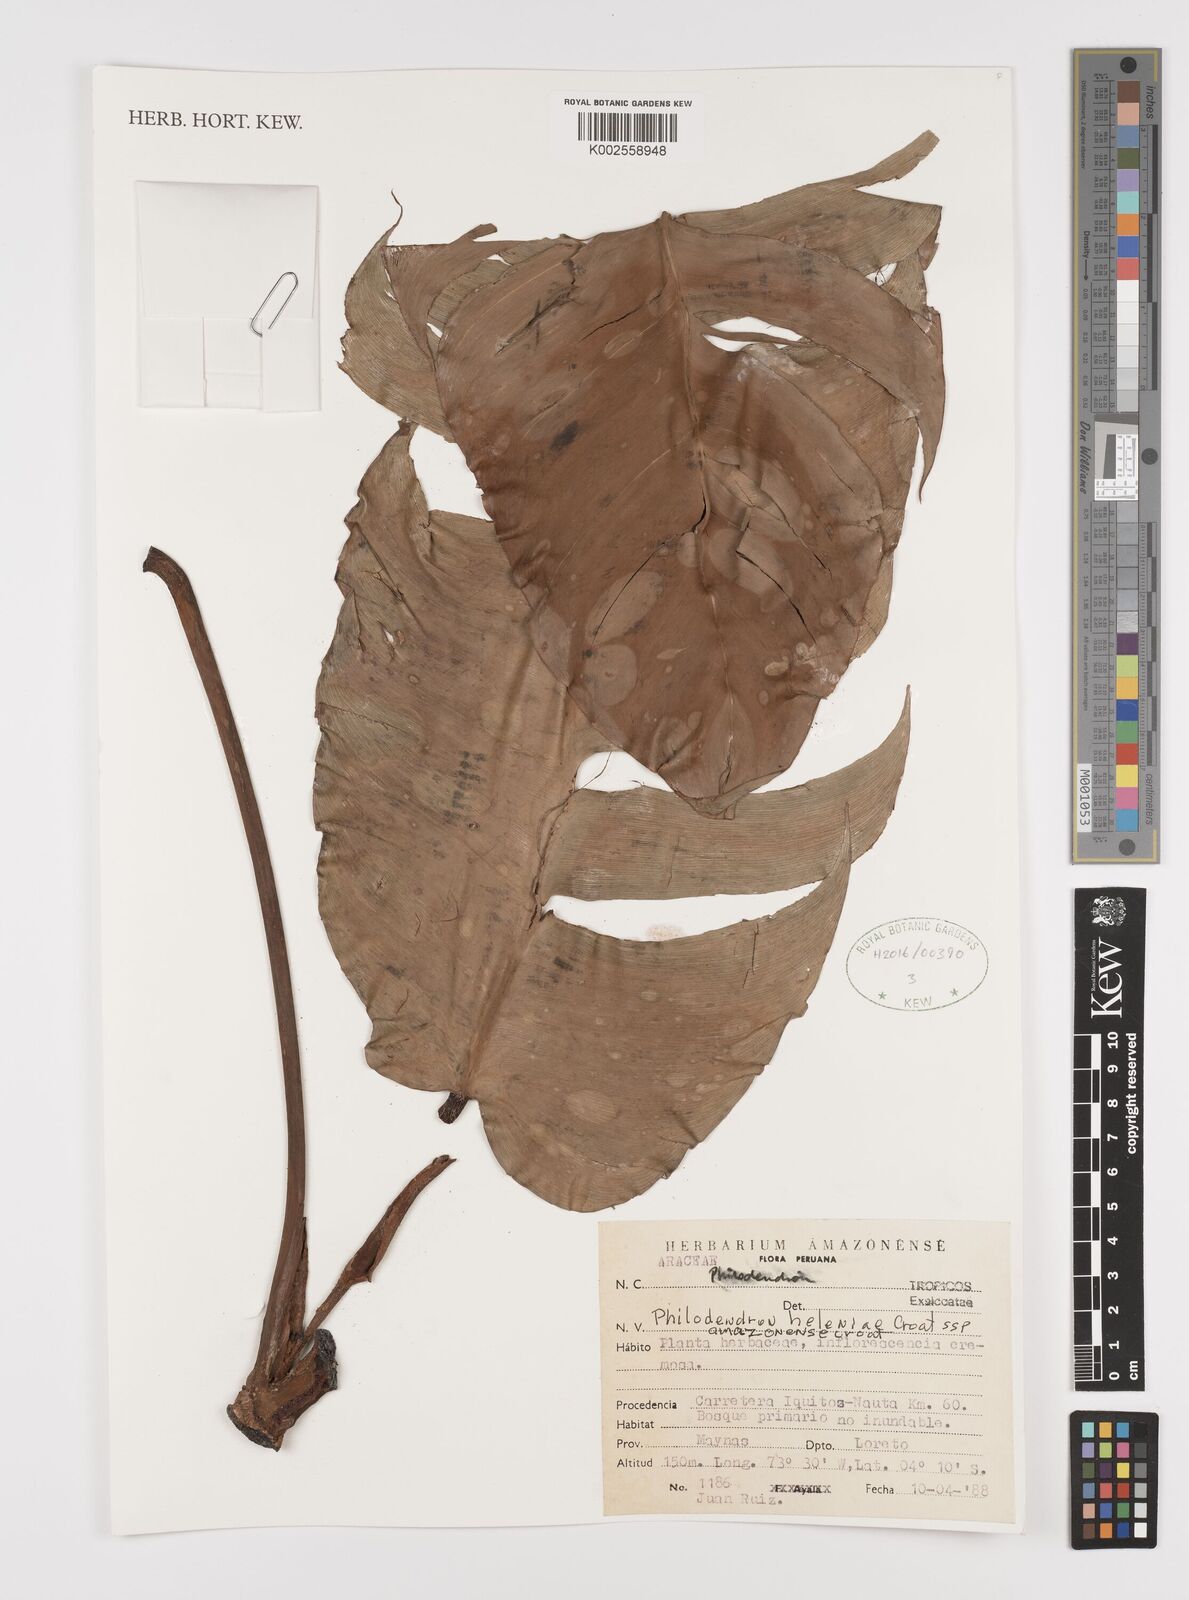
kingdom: Plantae
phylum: Tracheophyta
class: Liliopsida
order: Alismatales
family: Araceae
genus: Philodendron
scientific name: Philodendron heleniae
